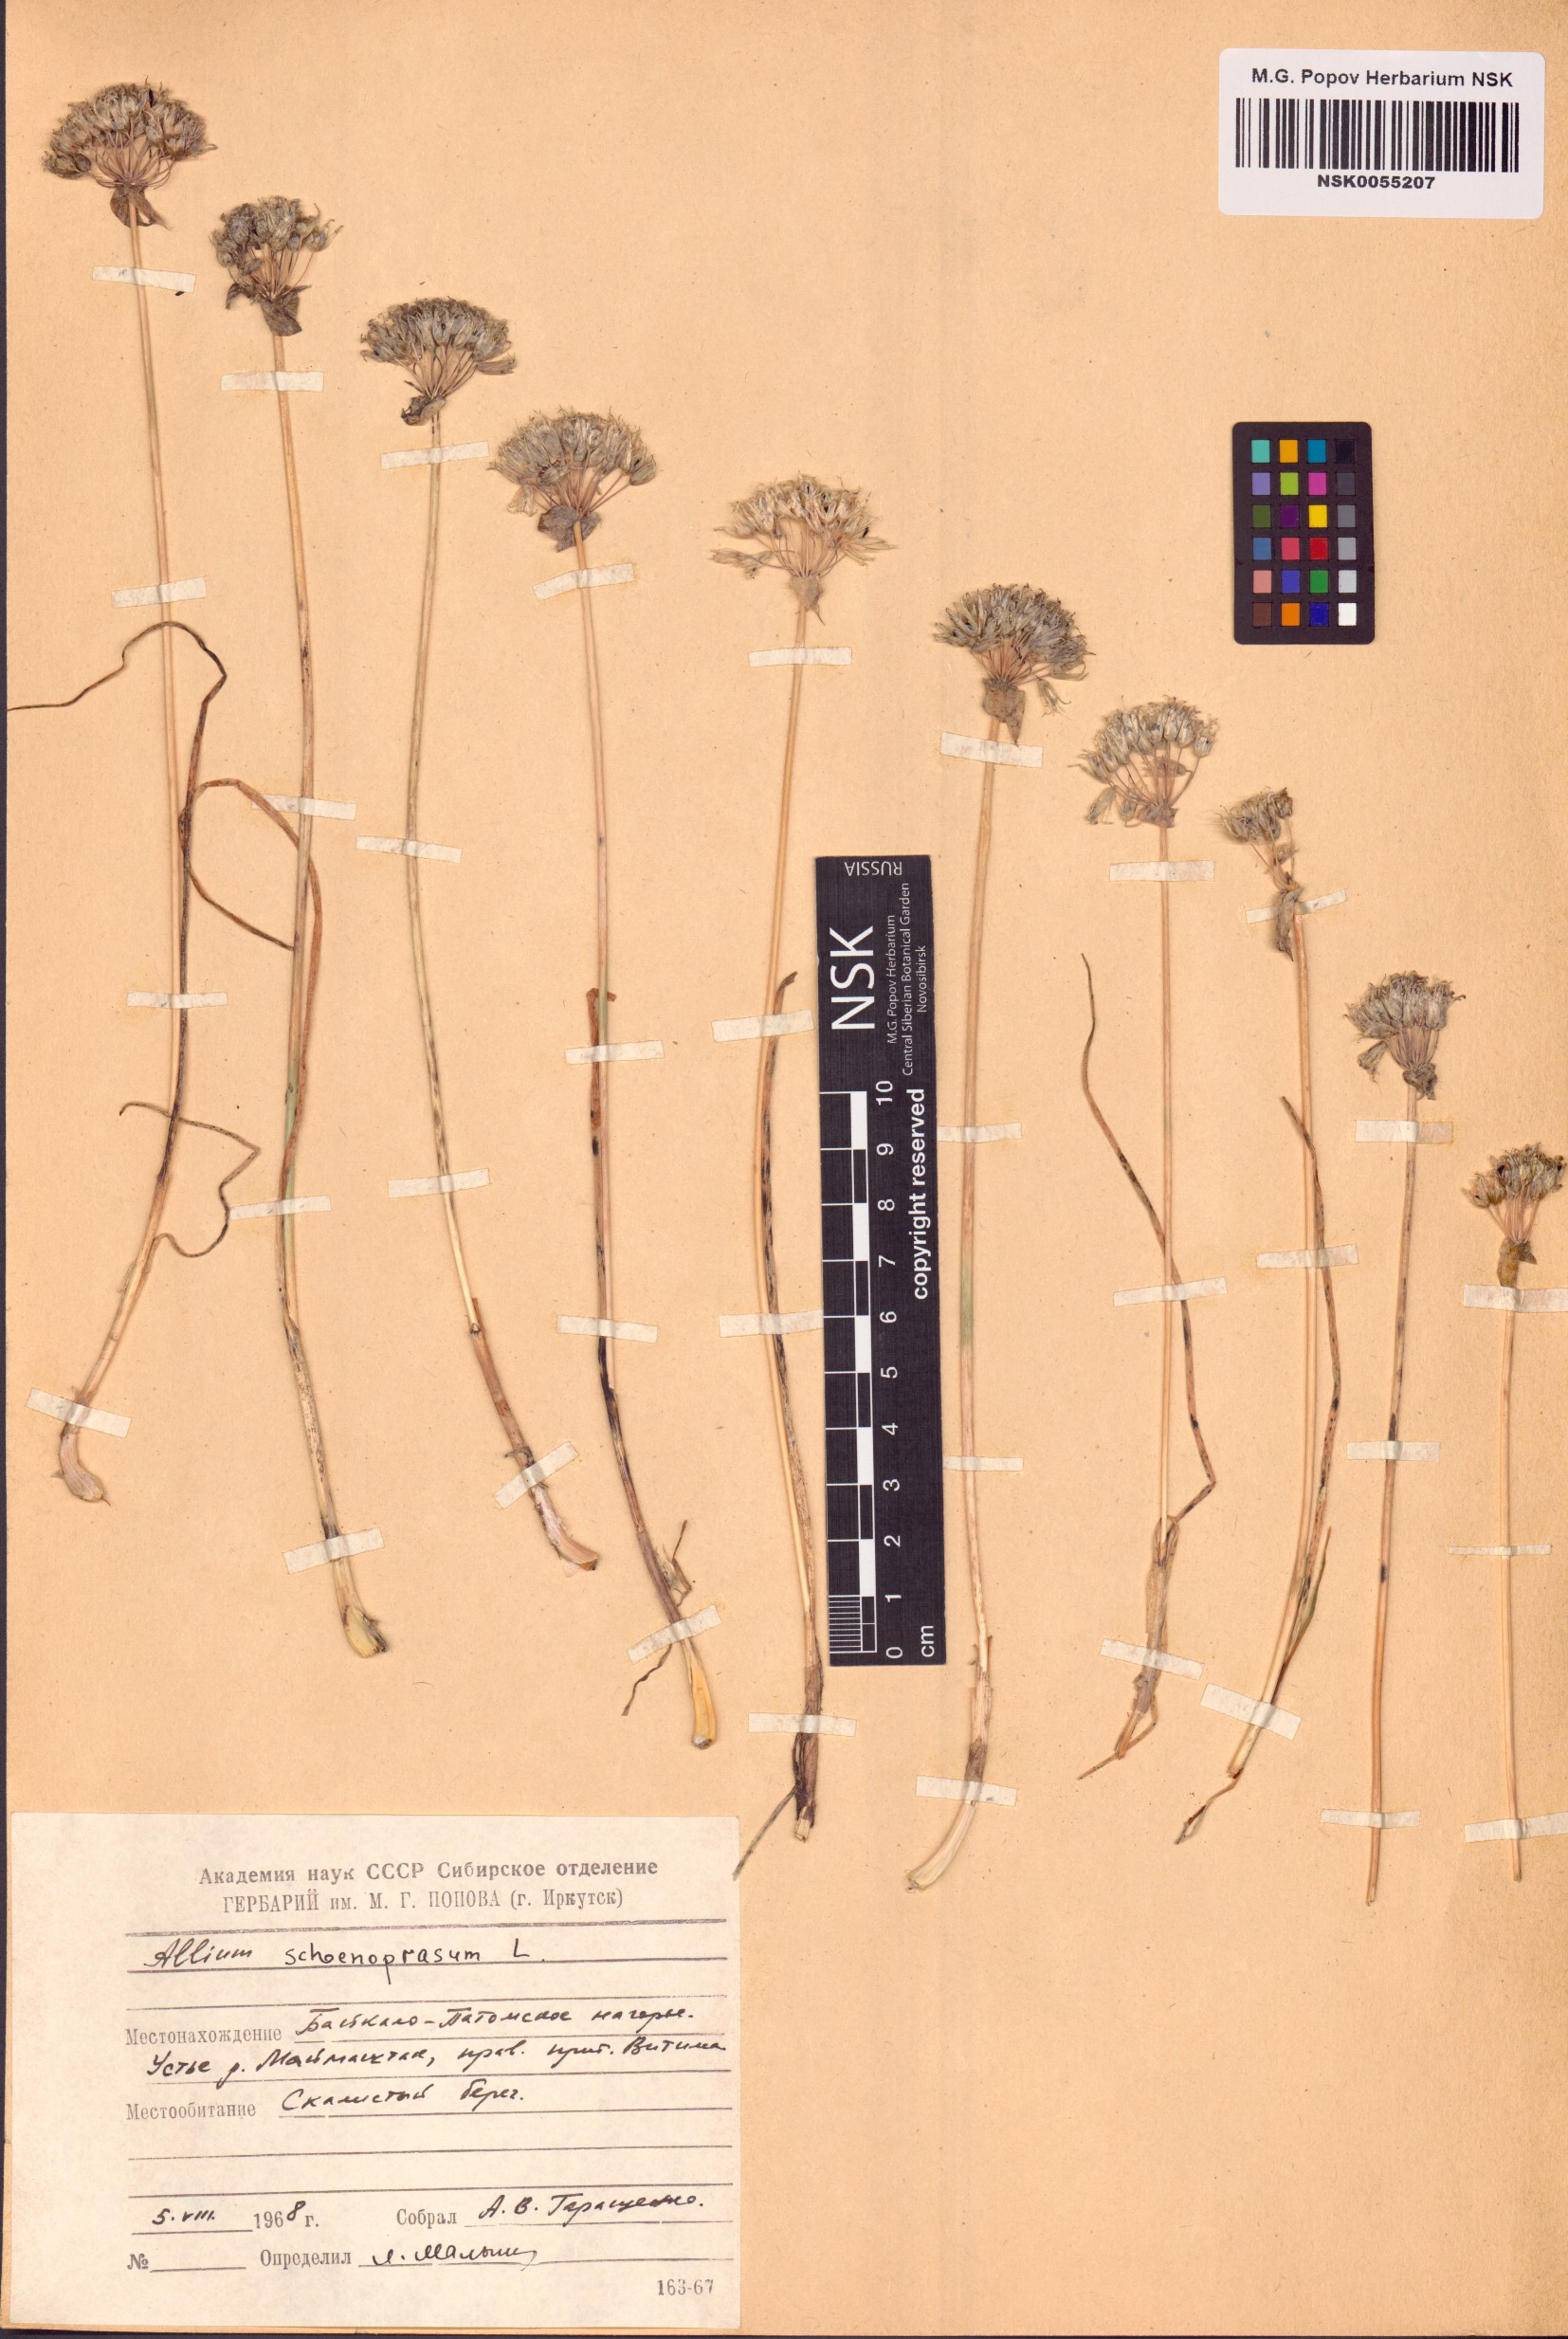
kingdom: Plantae
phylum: Tracheophyta
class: Liliopsida
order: Asparagales
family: Amaryllidaceae
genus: Allium
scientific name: Allium schoenoprasum
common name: Chives
